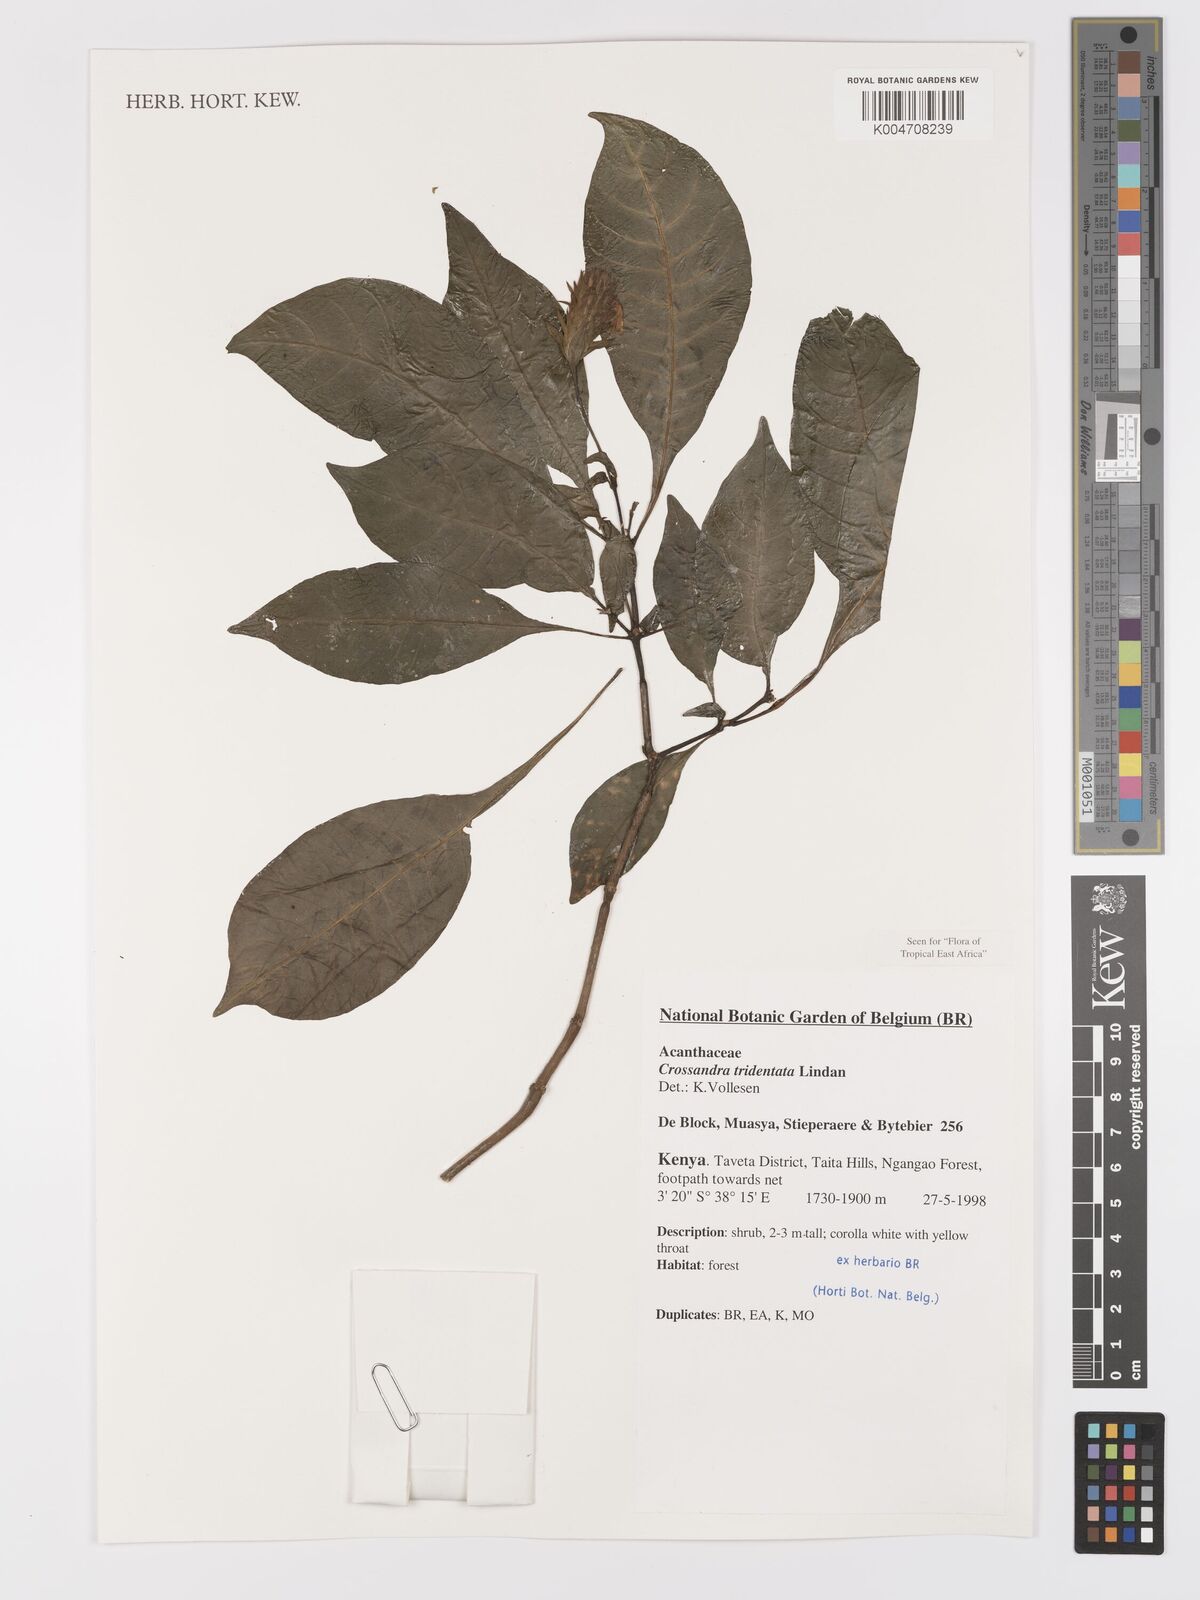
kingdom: Plantae
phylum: Tracheophyta
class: Magnoliopsida
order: Lamiales
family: Acanthaceae
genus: Crossandra
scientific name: Crossandra tridentata
